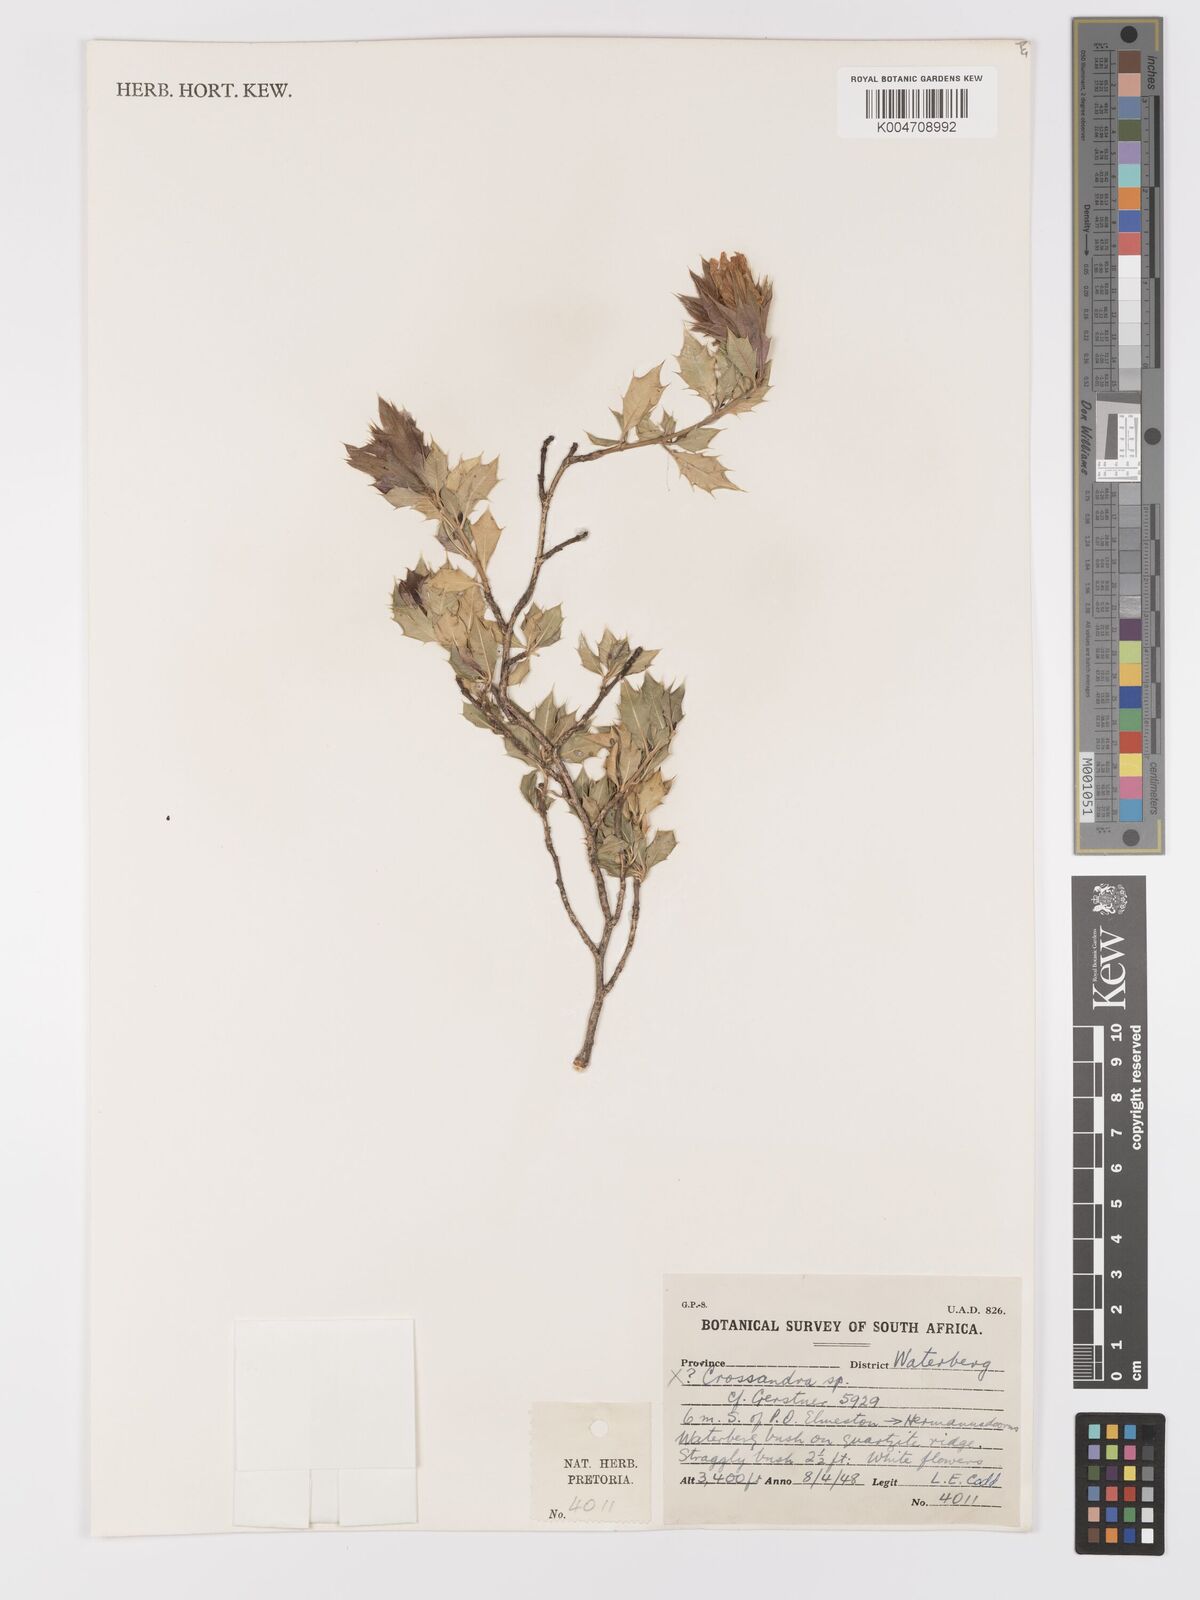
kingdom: Plantae
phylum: Tracheophyta
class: Magnoliopsida
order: Lamiales
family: Acanthaceae
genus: Sclerochiton
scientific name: Sclerochiton ilicifolius
